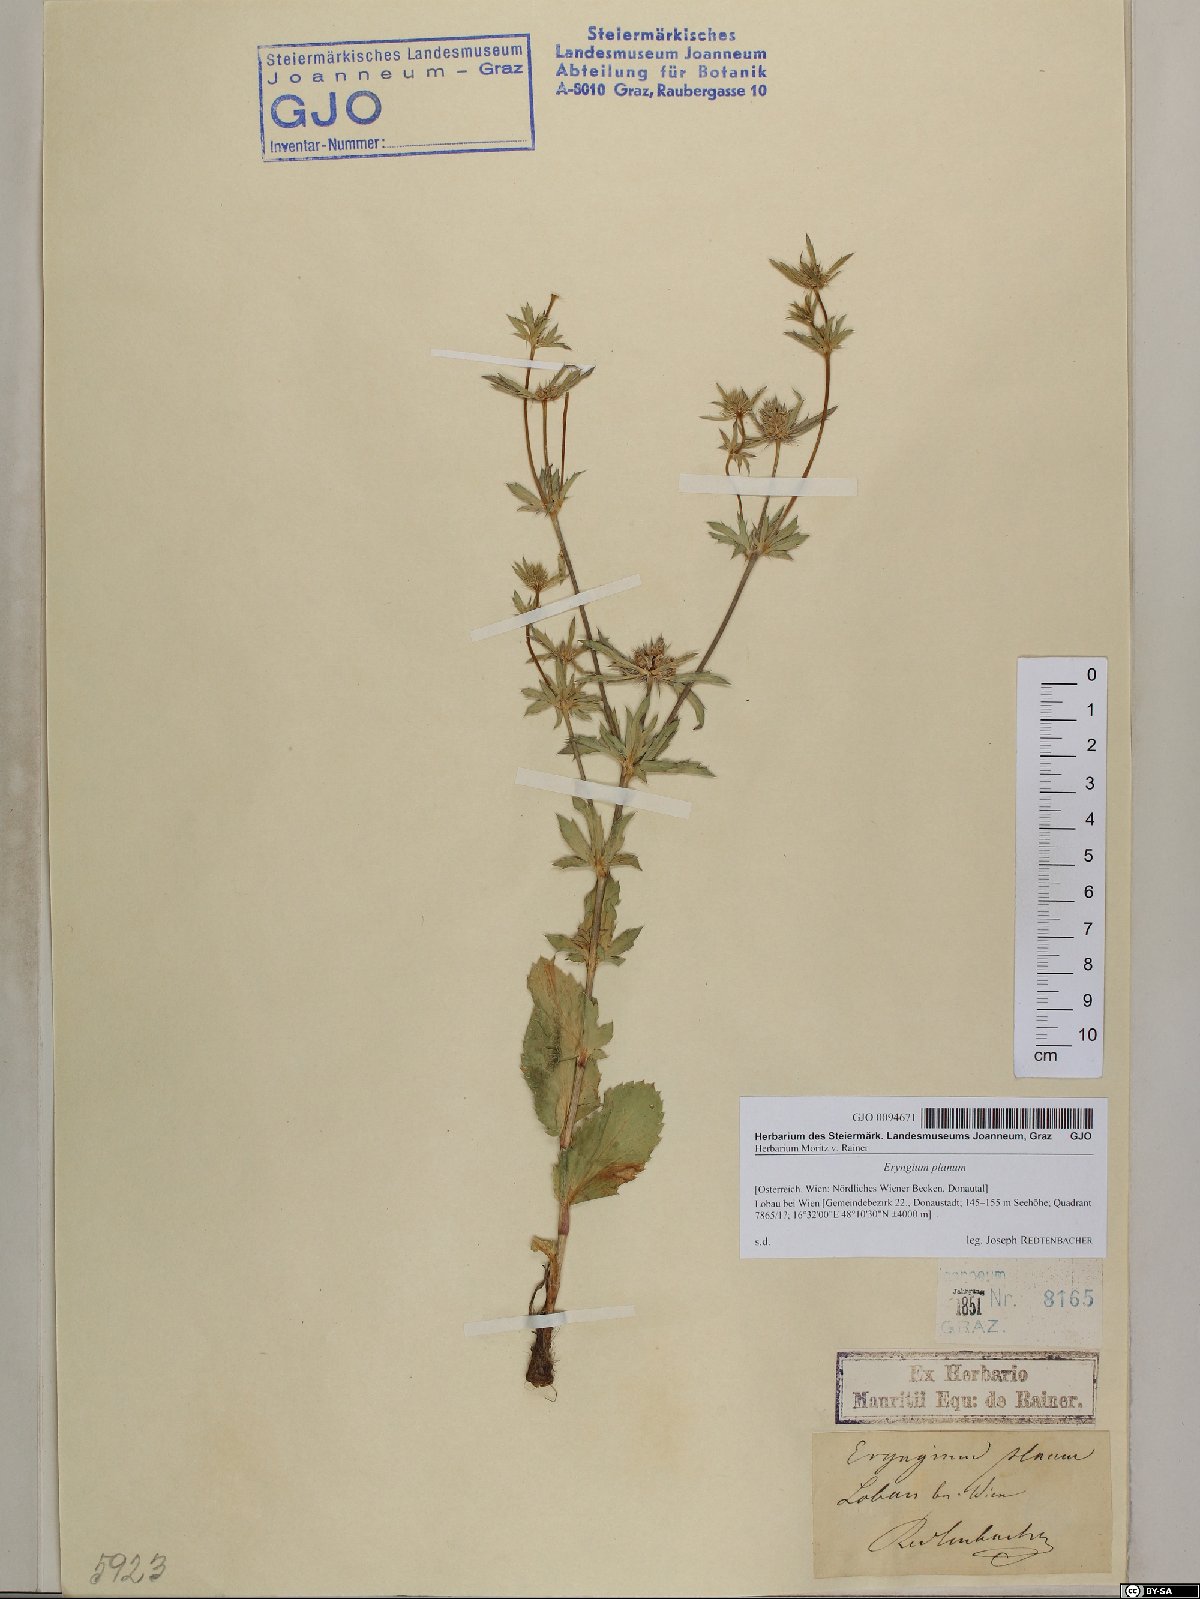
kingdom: Plantae
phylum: Tracheophyta
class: Magnoliopsida
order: Apiales
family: Apiaceae
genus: Eryngium
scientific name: Eryngium planum
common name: Blue eryngo
